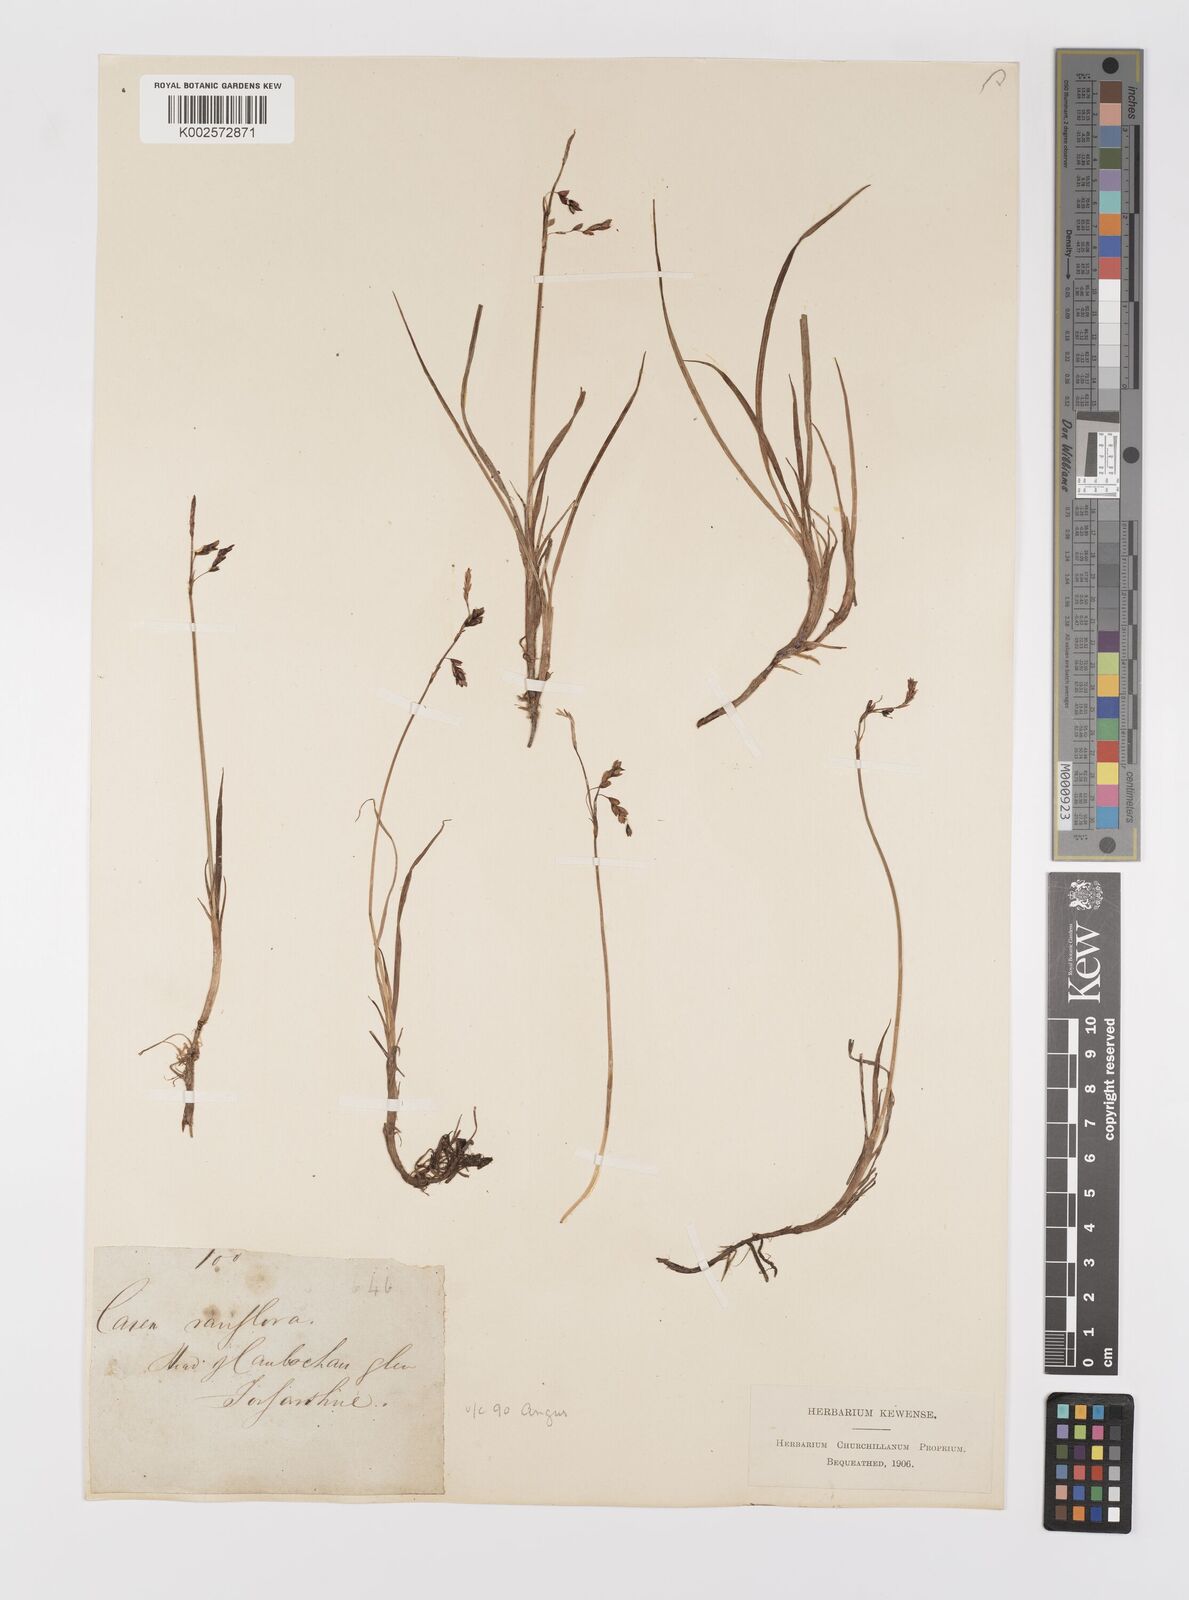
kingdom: Plantae
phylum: Tracheophyta
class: Liliopsida
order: Poales
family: Cyperaceae
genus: Carex
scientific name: Carex rariflora
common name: Loose-flowered alpine sedge
